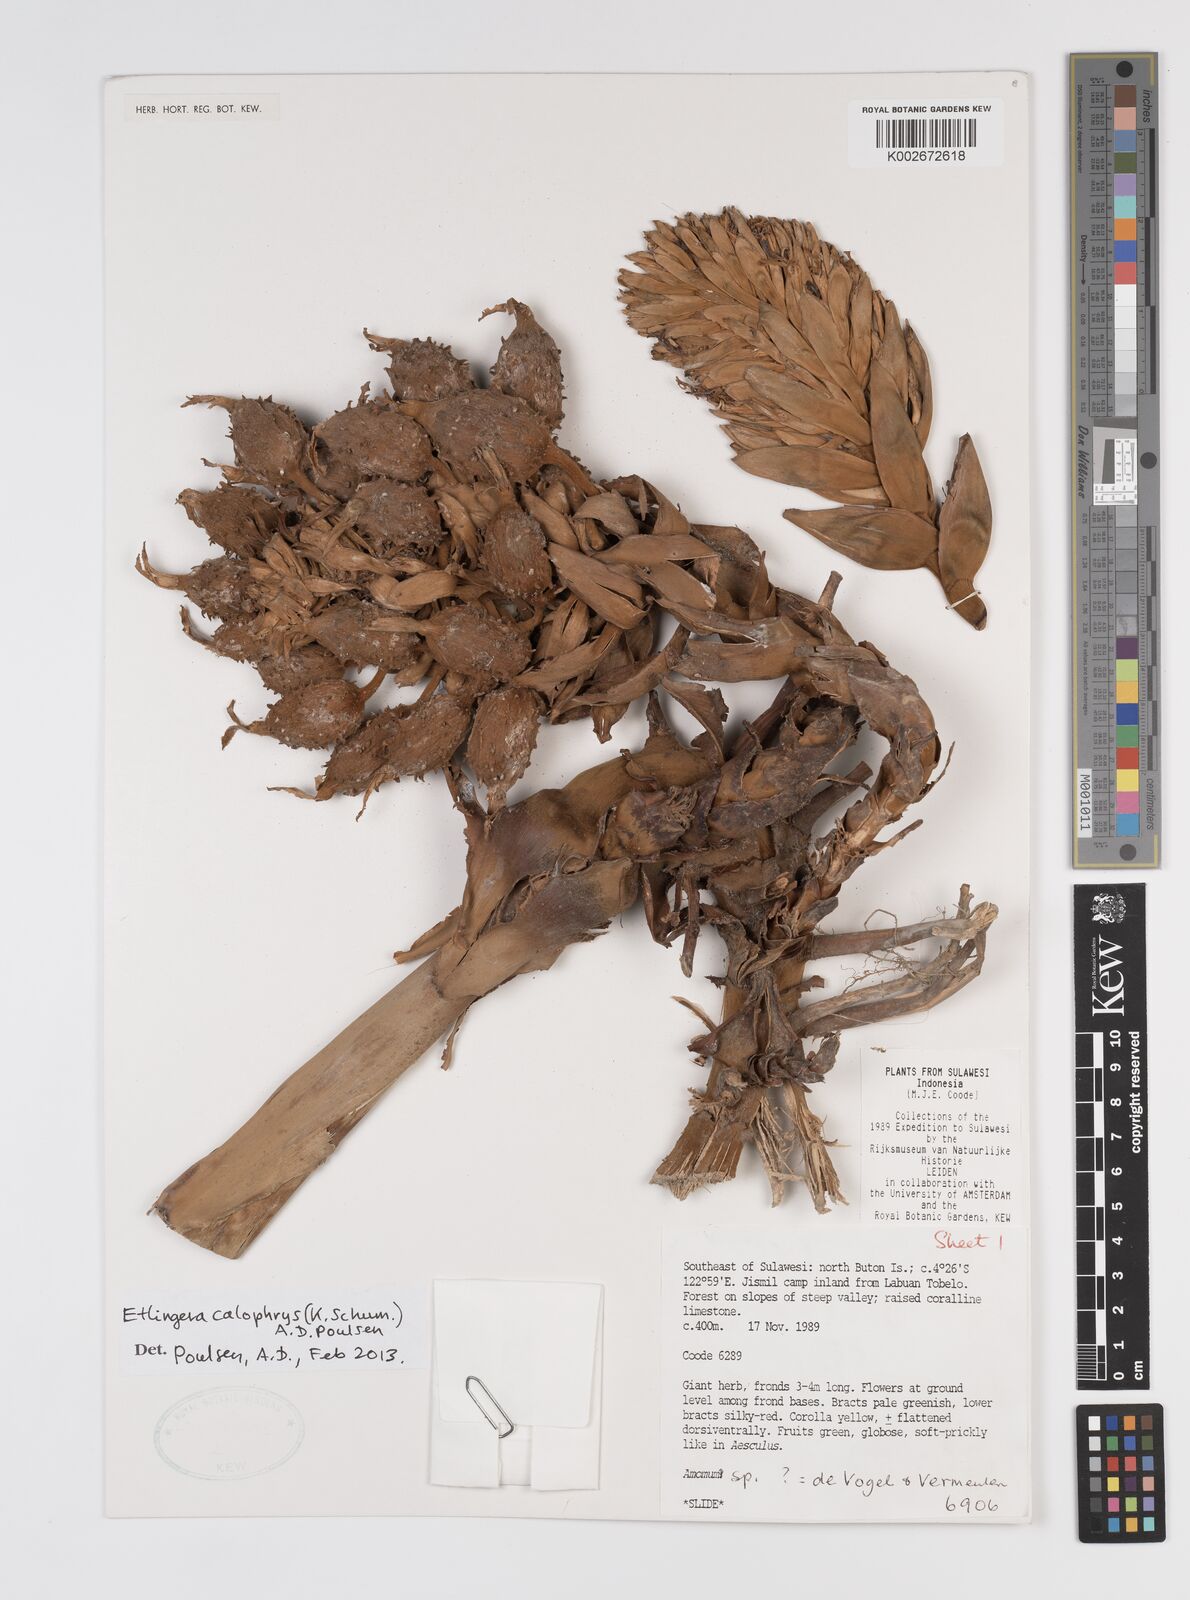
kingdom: Plantae
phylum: Tracheophyta
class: Liliopsida
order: Zingiberales
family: Zingiberaceae
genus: Etlingera
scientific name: Etlingera calophrys
